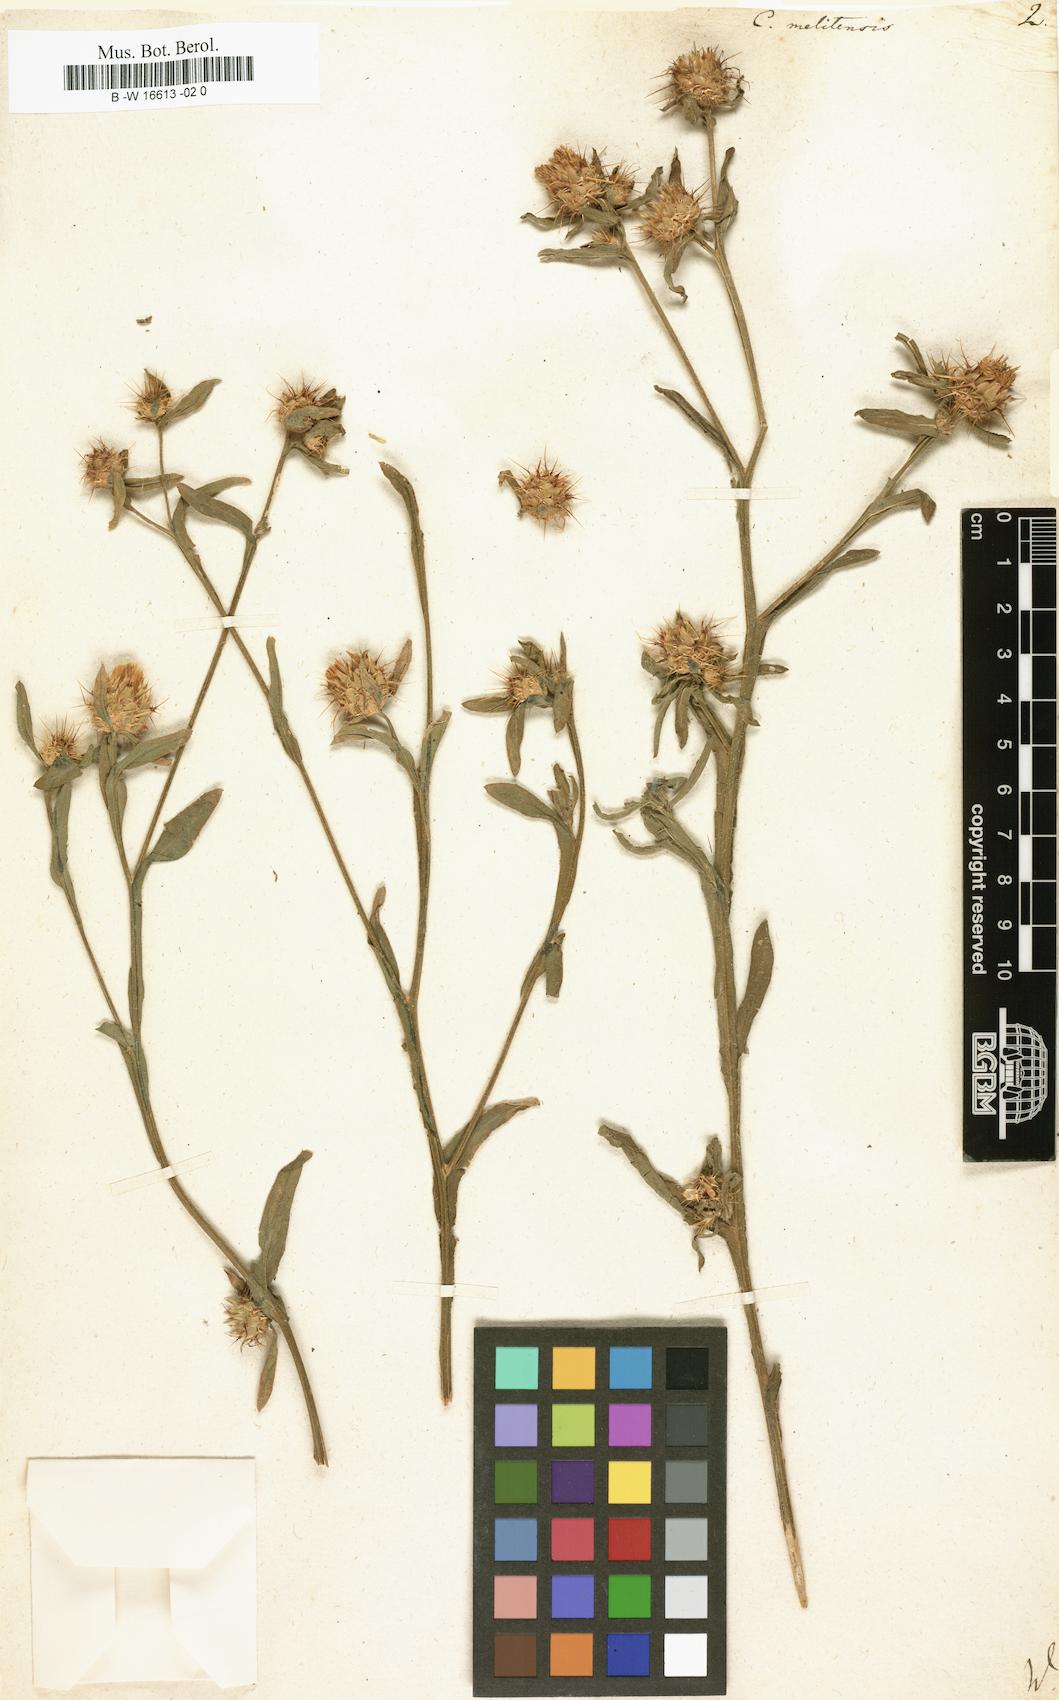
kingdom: Plantae
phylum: Tracheophyta
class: Magnoliopsida
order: Asterales
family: Asteraceae
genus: Centaurea
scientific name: Centaurea melitensis
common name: Maltese star-thistle
